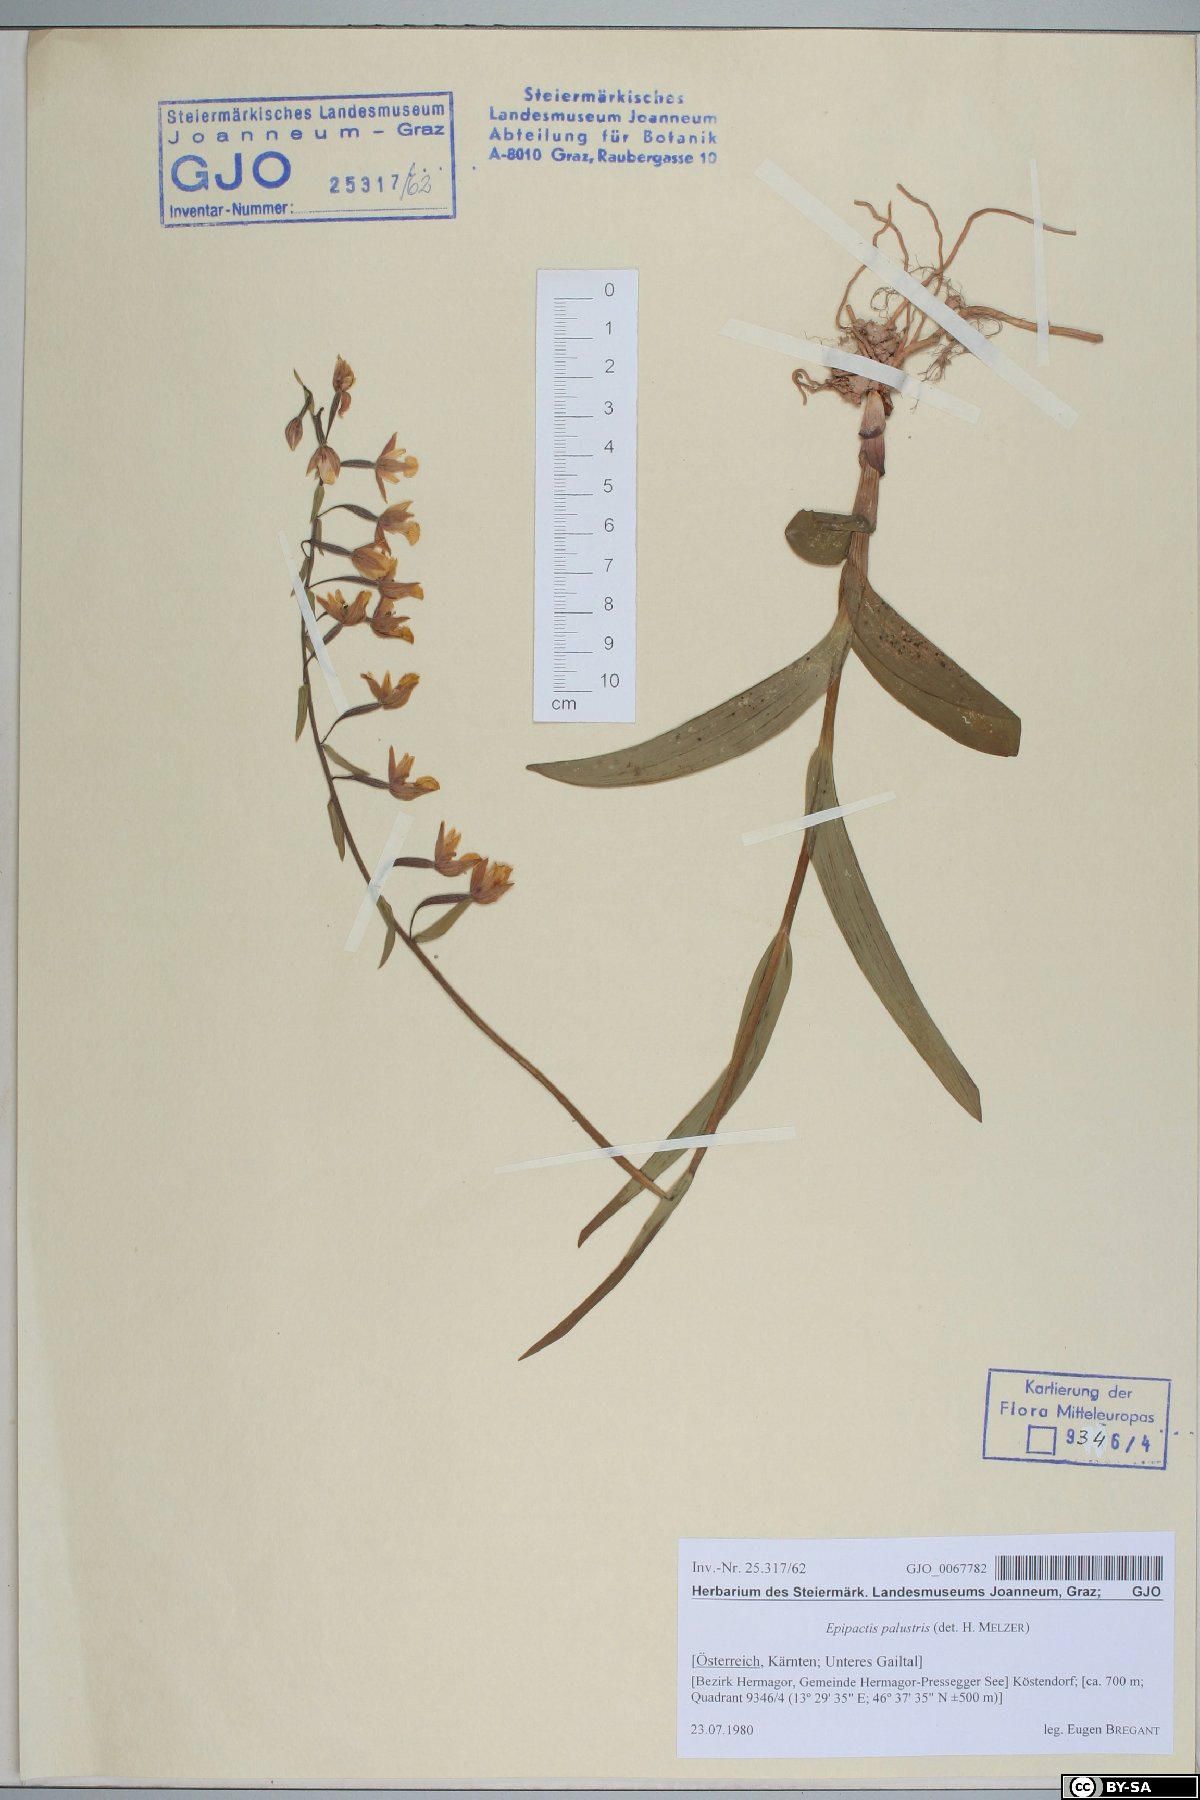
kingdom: Plantae
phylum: Tracheophyta
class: Liliopsida
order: Asparagales
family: Orchidaceae
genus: Epipactis
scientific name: Epipactis palustris
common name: Marsh helleborine
